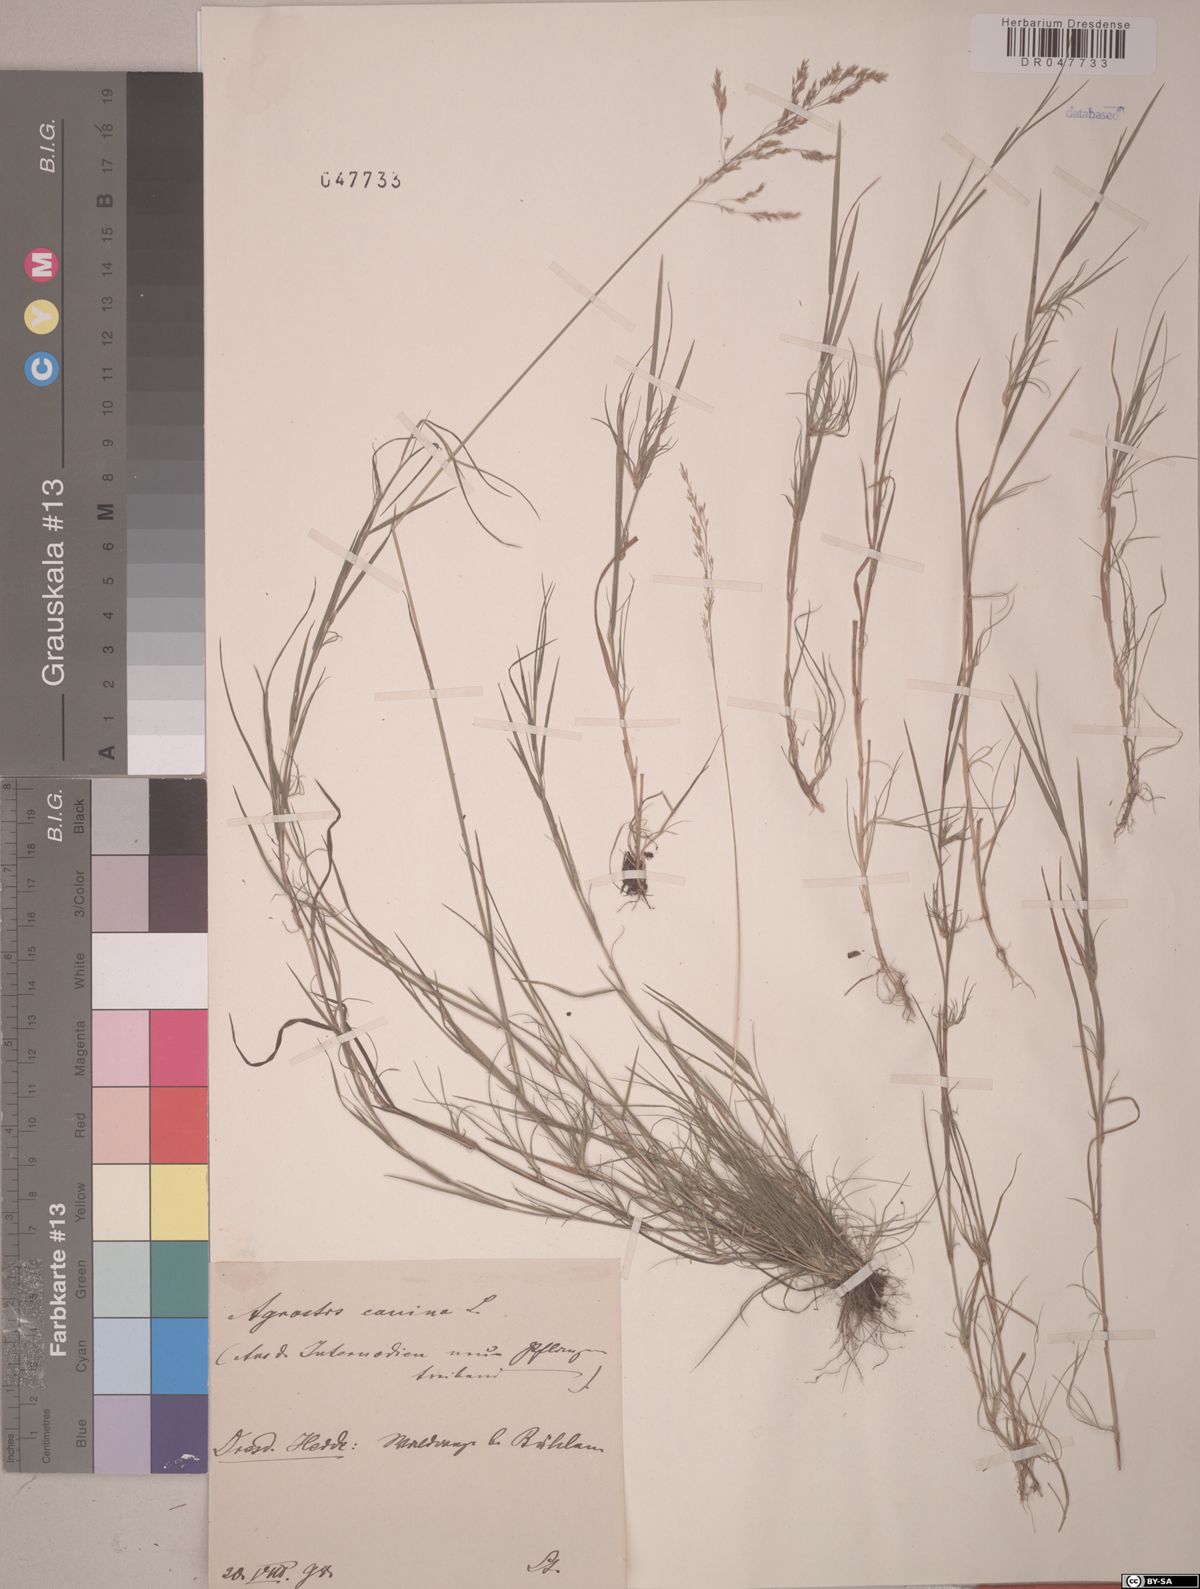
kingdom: Plantae
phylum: Tracheophyta
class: Liliopsida
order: Poales
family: Poaceae
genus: Agrostis
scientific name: Agrostis canina
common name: Velvet bent
